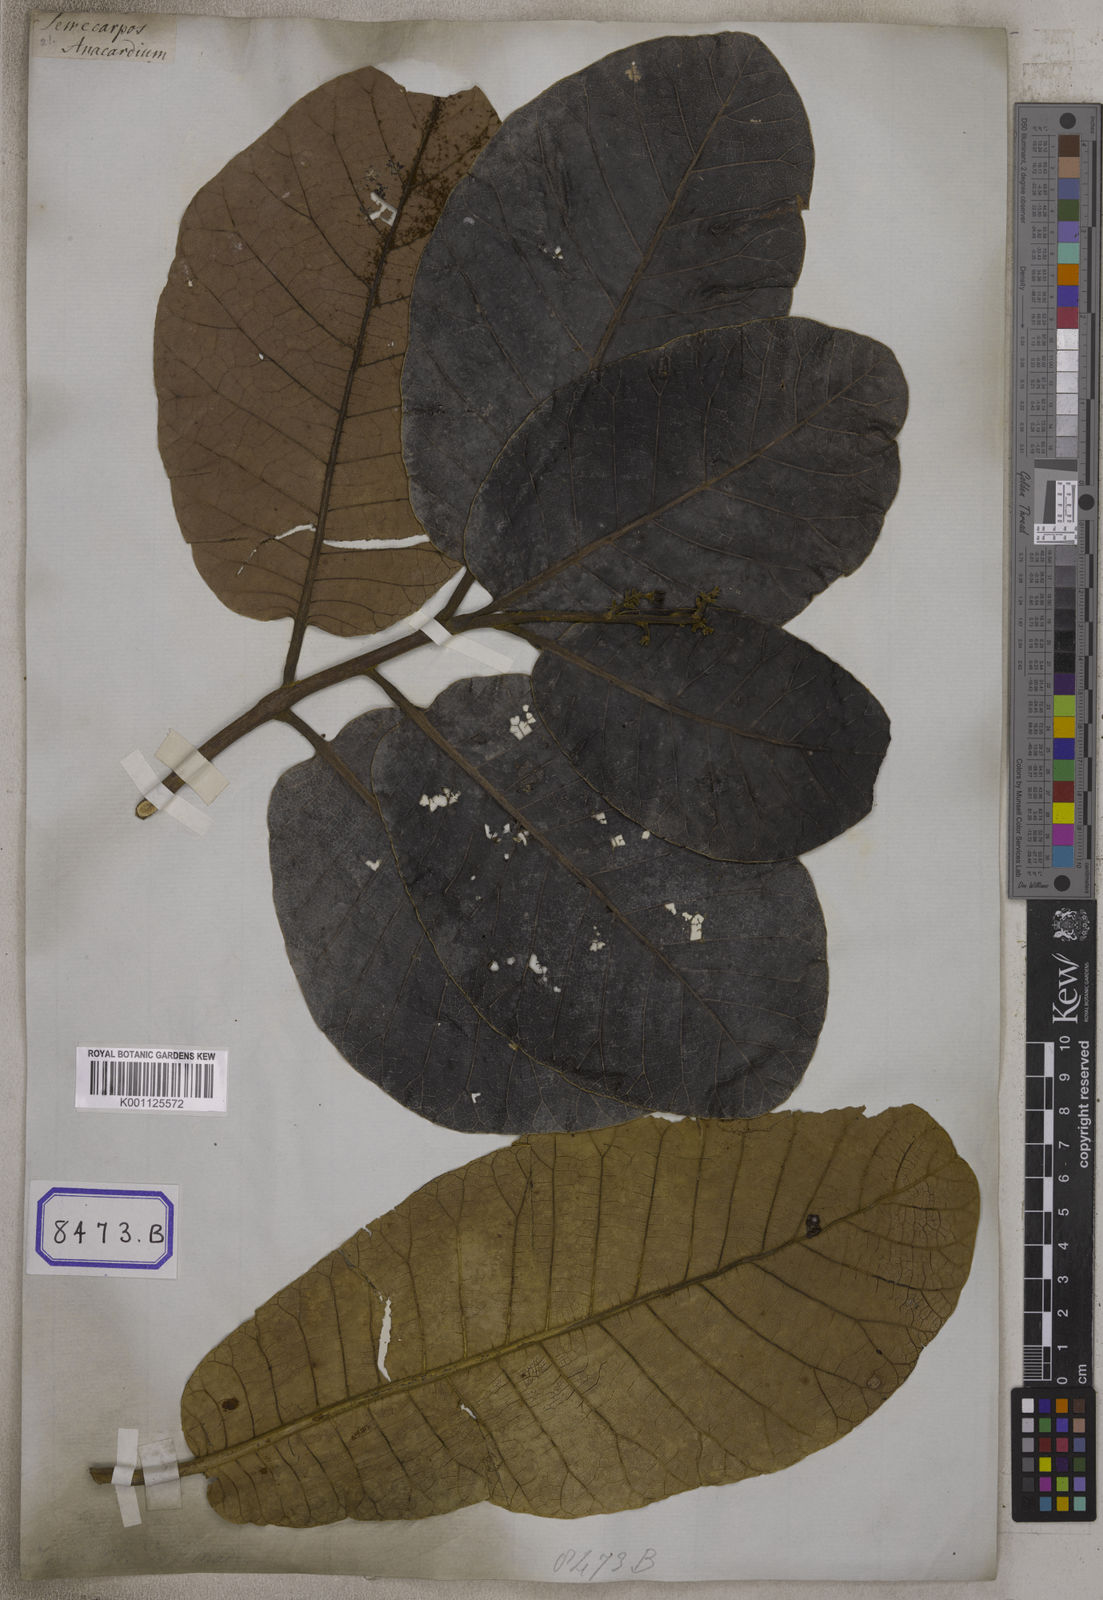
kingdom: Plantae
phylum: Tracheophyta
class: Magnoliopsida
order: Sapindales
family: Anacardiaceae
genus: Semecarpus
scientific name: Semecarpus anacardium
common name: Marking nut-tree
